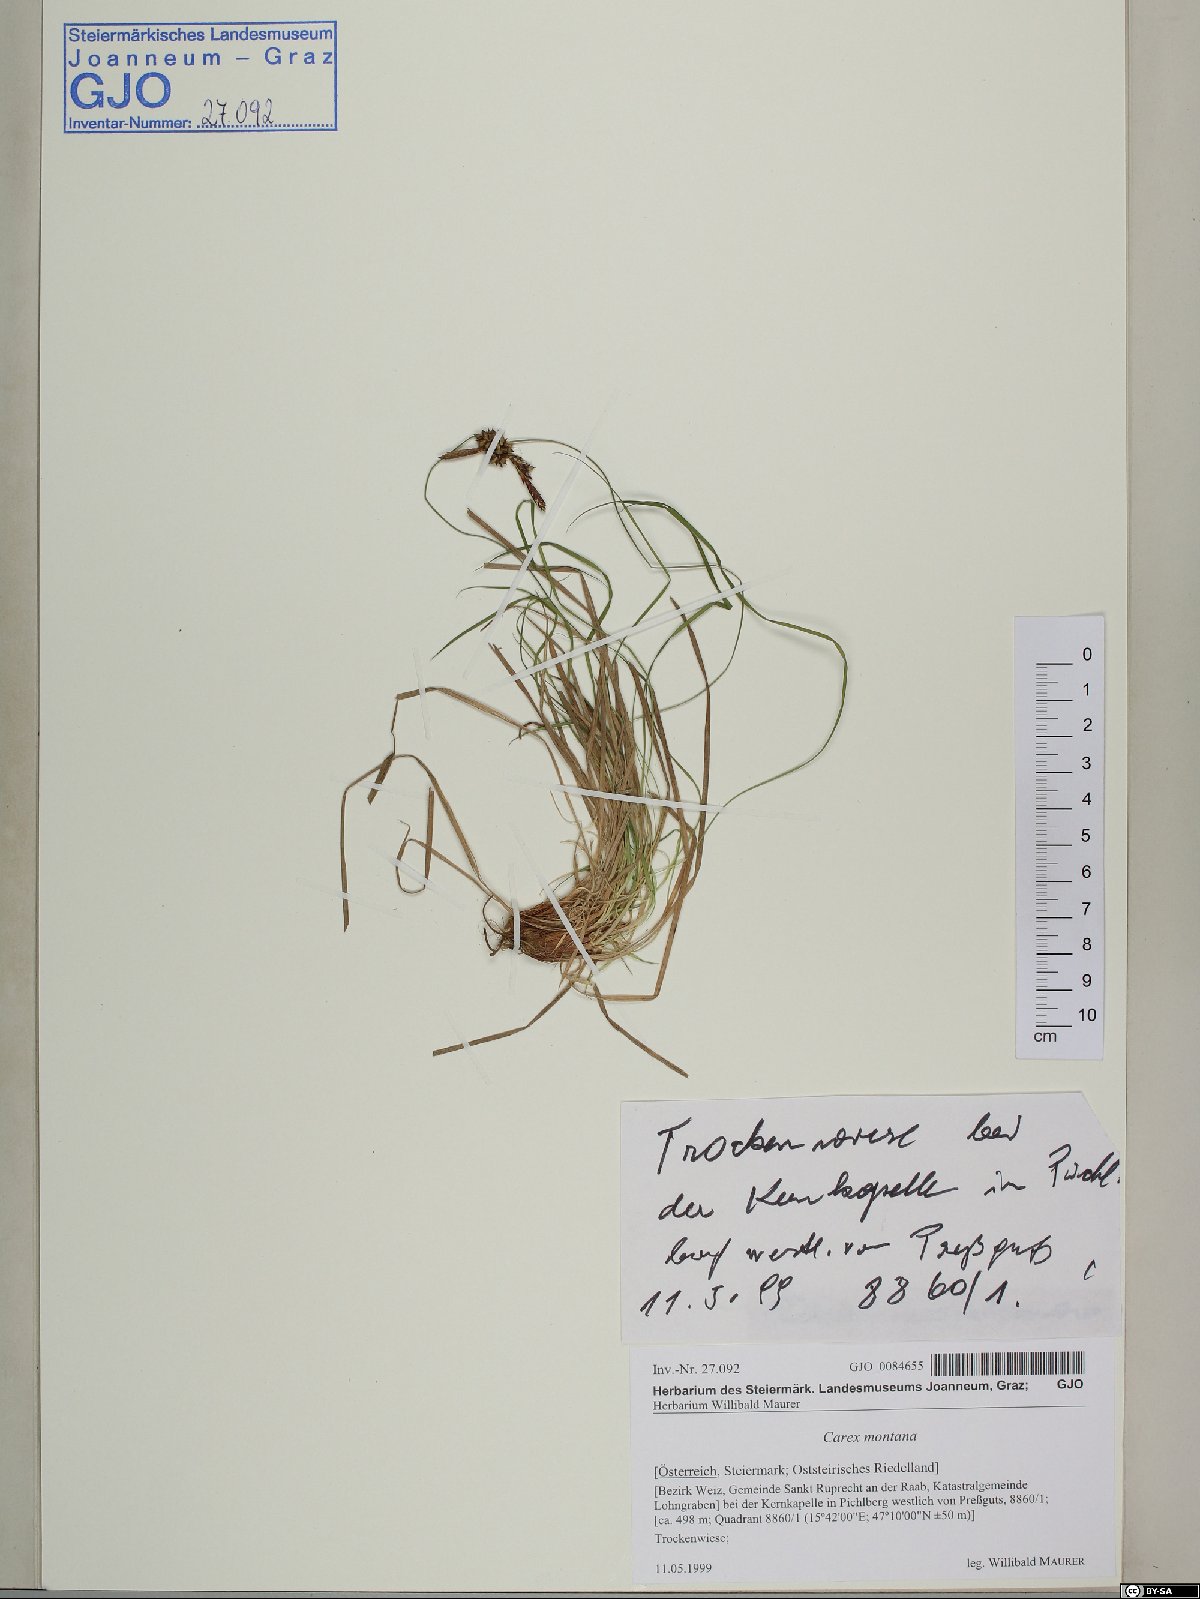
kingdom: Plantae
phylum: Tracheophyta
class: Liliopsida
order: Poales
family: Cyperaceae
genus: Carex
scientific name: Carex montana
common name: Soft-leaved sedge
